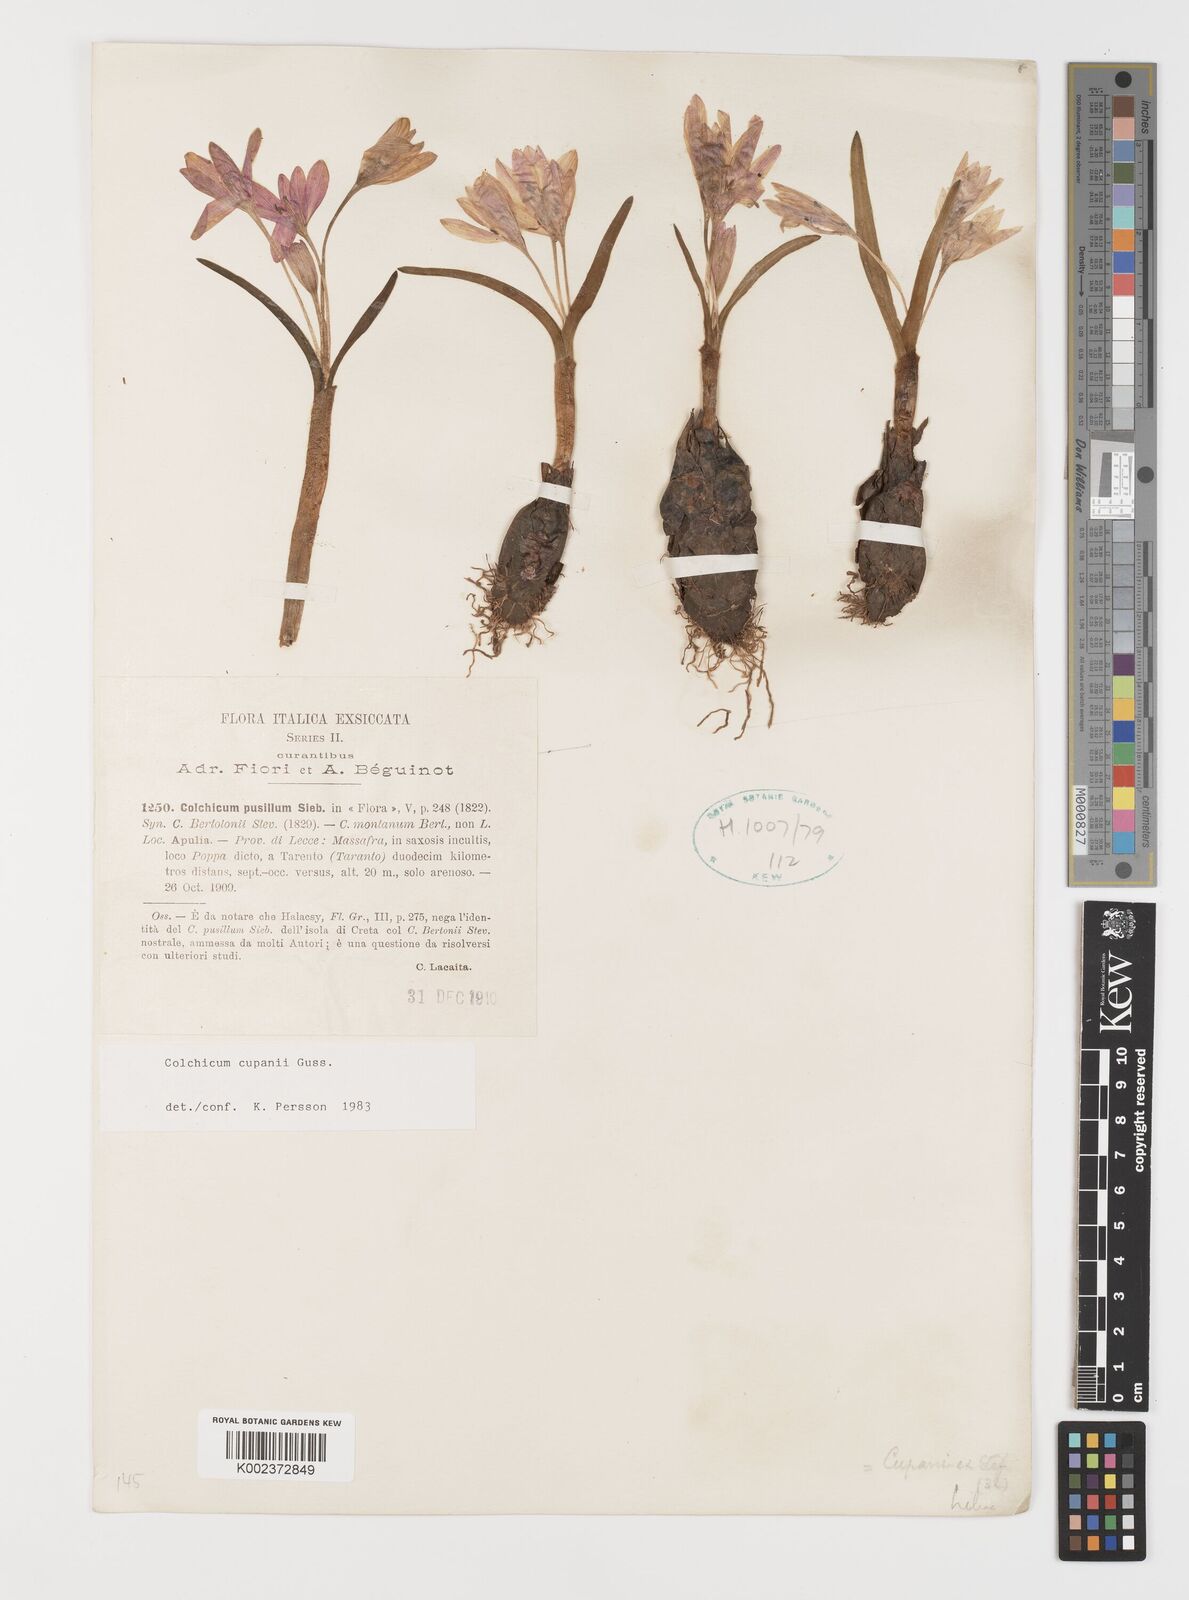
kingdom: Plantae
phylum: Tracheophyta
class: Liliopsida
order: Liliales
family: Colchicaceae
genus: Colchicum
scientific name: Colchicum cupanii
